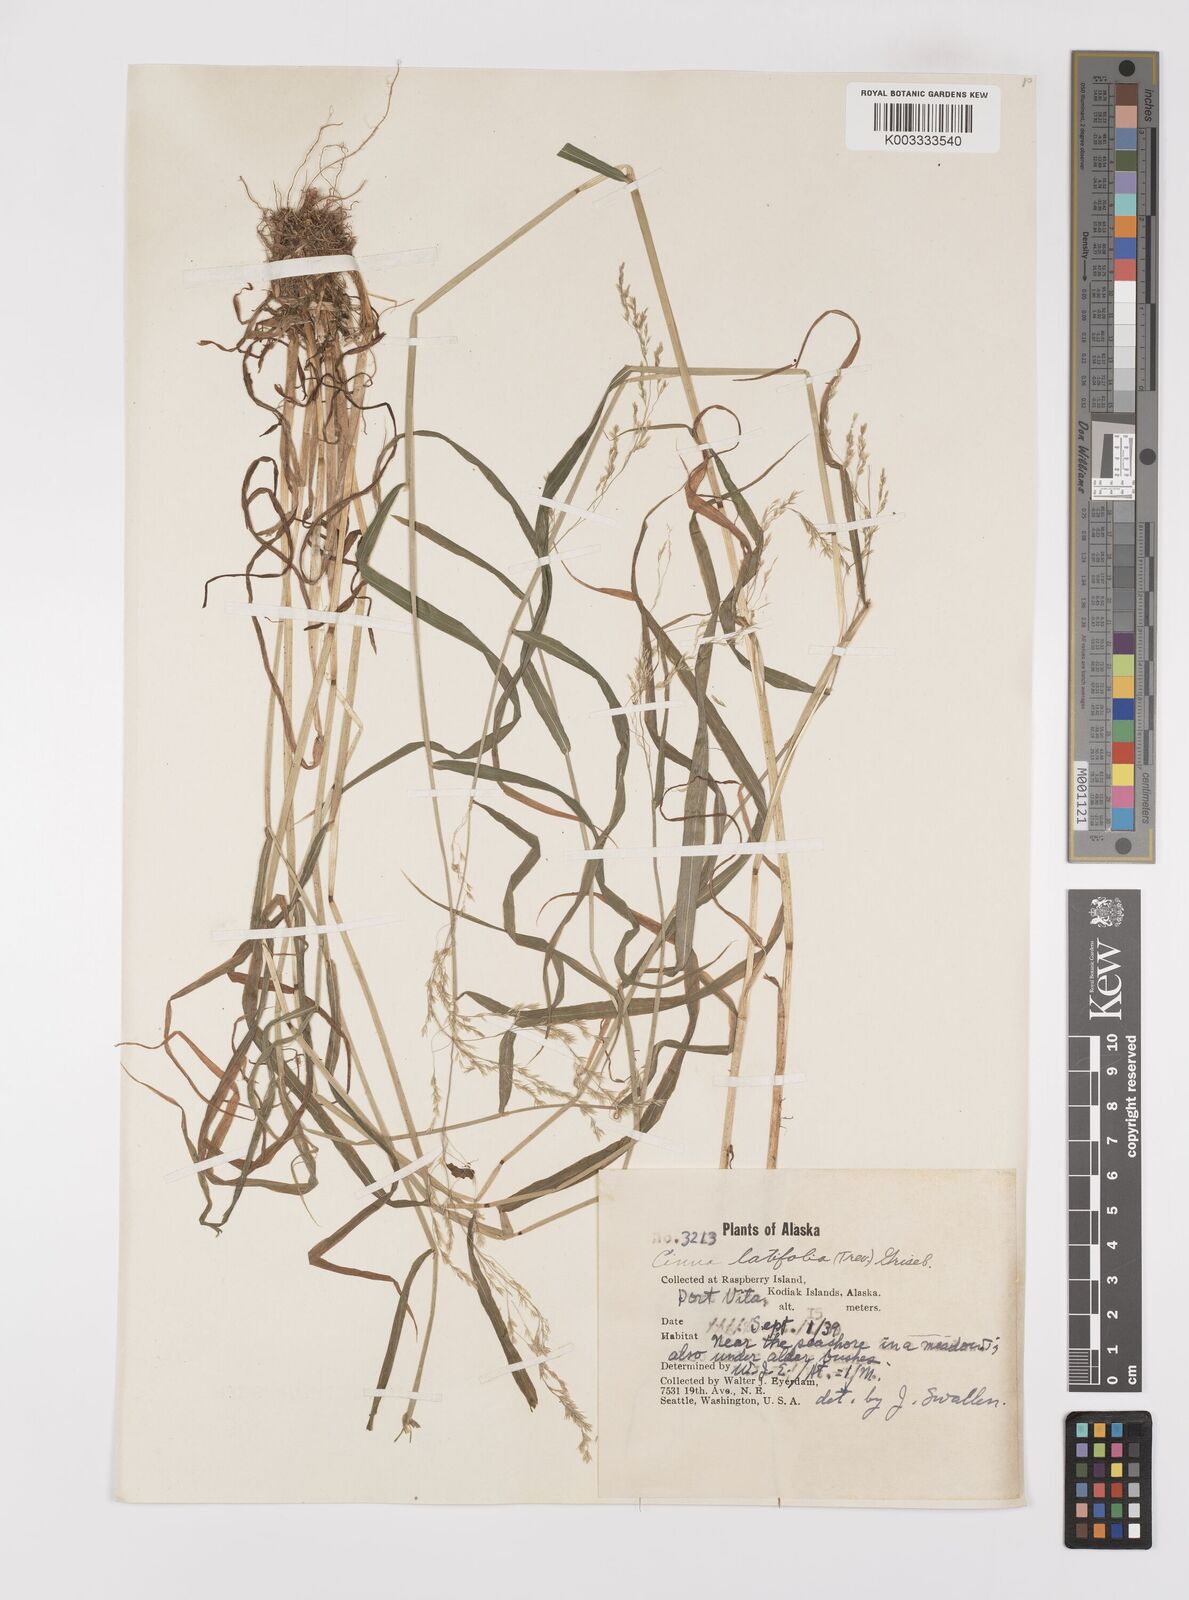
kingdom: Plantae
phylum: Tracheophyta
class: Liliopsida
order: Poales
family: Poaceae
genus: Cinna
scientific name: Cinna latifolia
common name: Drooping woodreed
